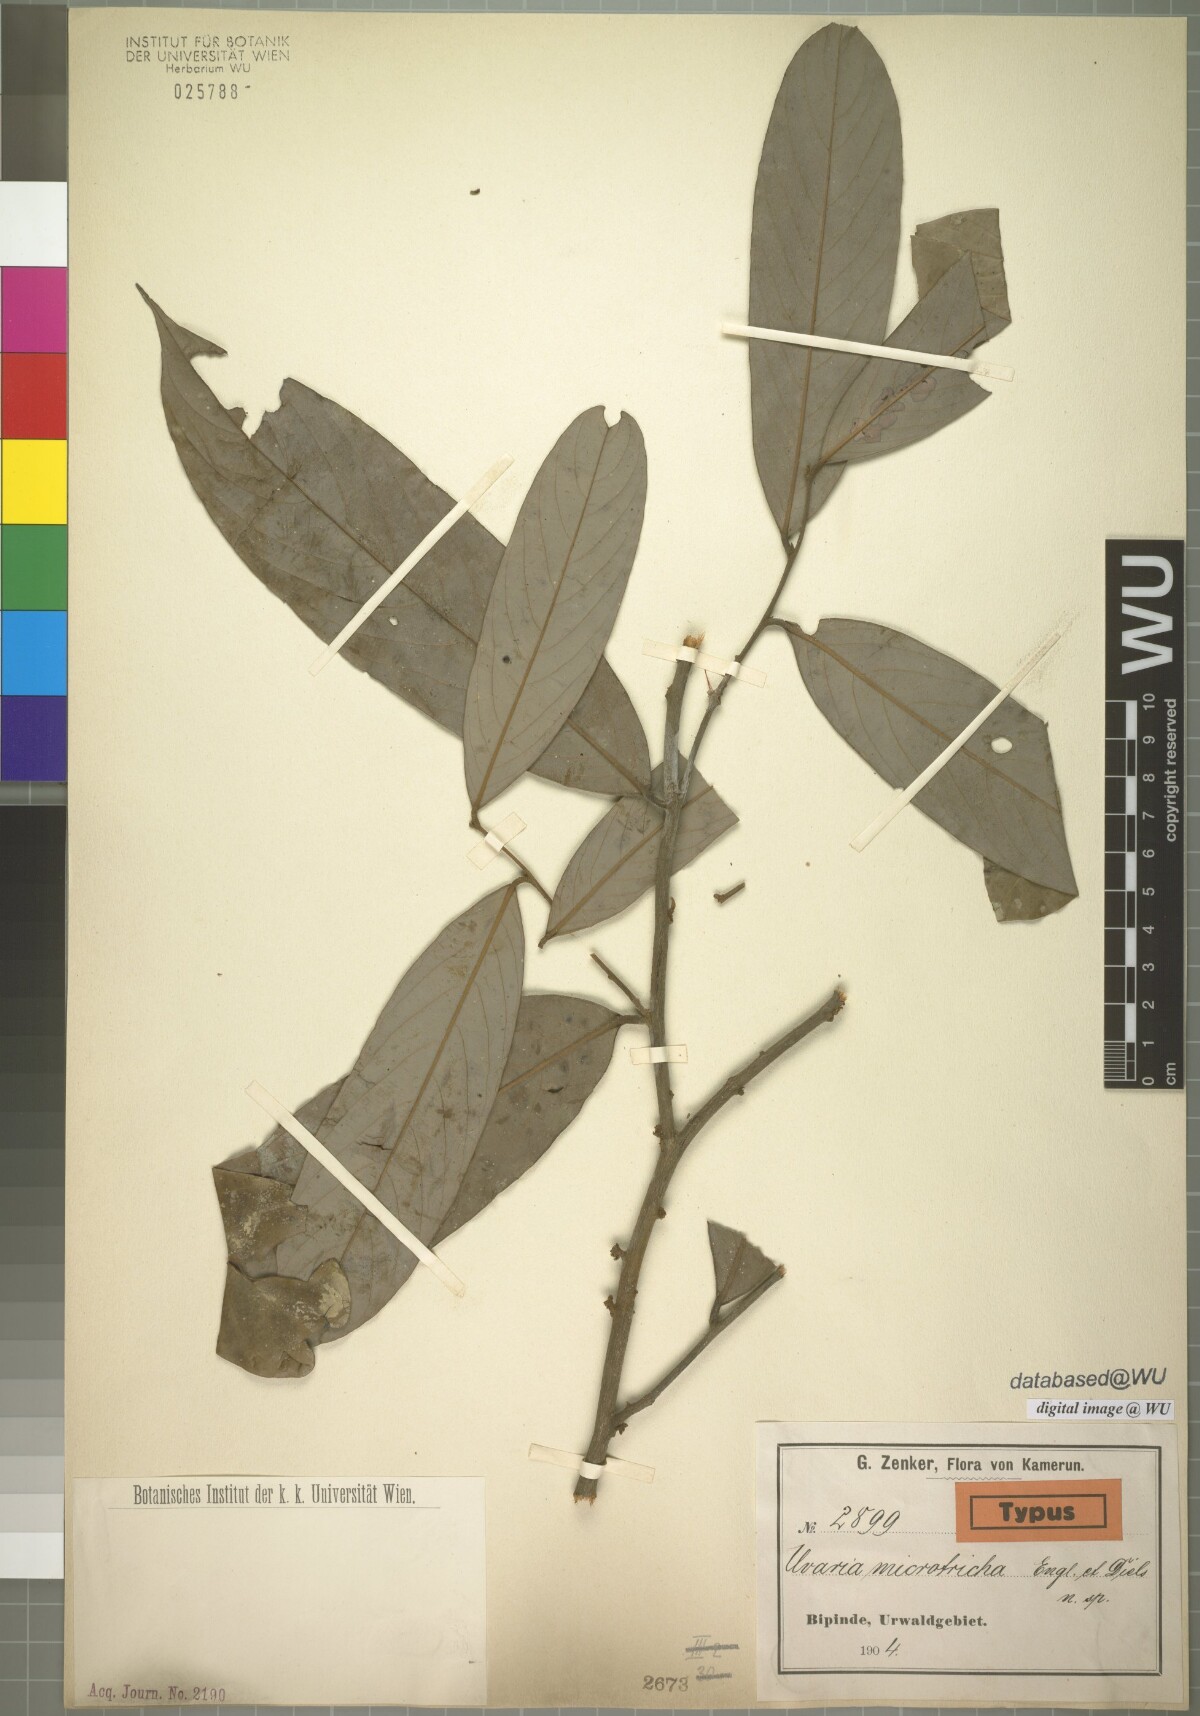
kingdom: Plantae
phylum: Tracheophyta
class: Magnoliopsida
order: Magnoliales
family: Annonaceae
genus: Polyceratocarpus
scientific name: Polyceratocarpus microtrichus
